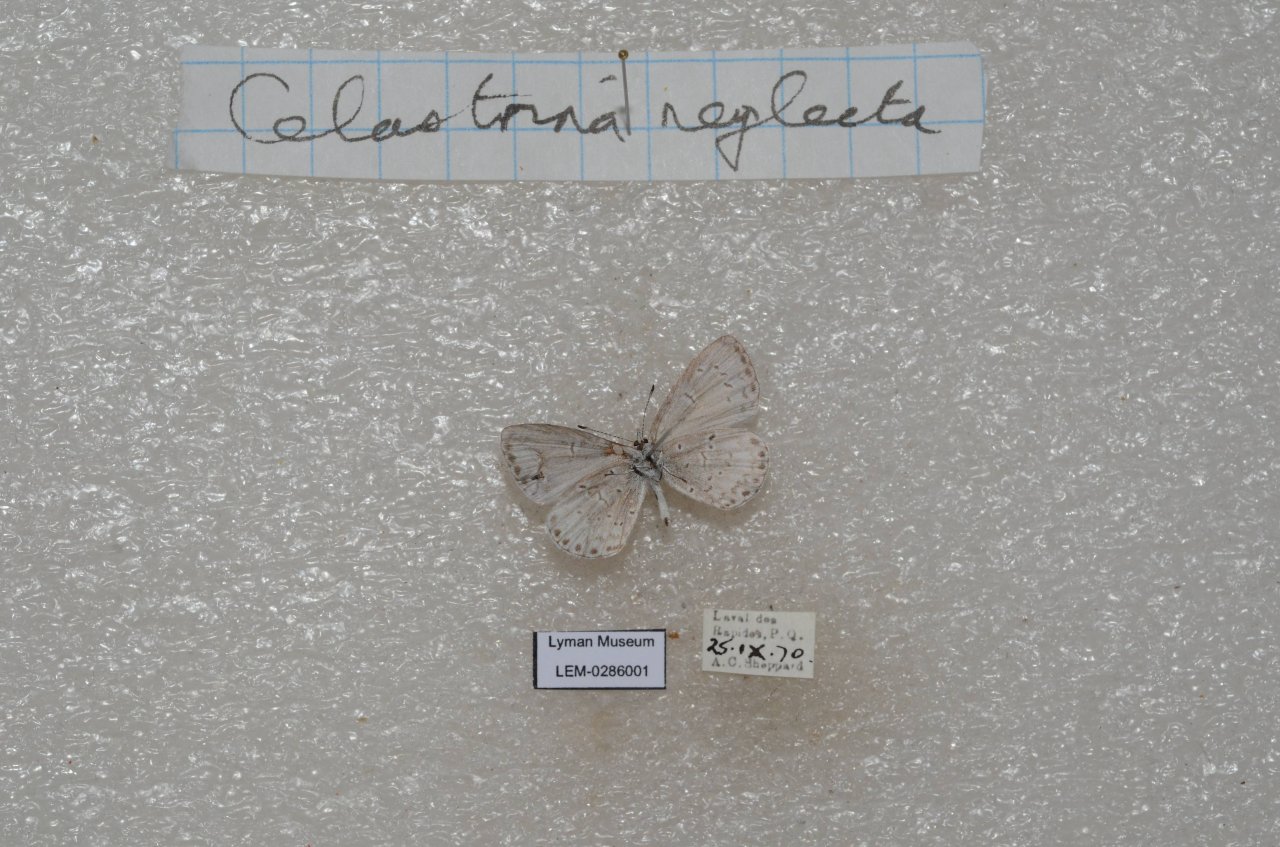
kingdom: Animalia
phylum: Arthropoda
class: Insecta
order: Lepidoptera
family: Lycaenidae
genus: Celastrina
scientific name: Celastrina lucia
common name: Northern Spring Azure
